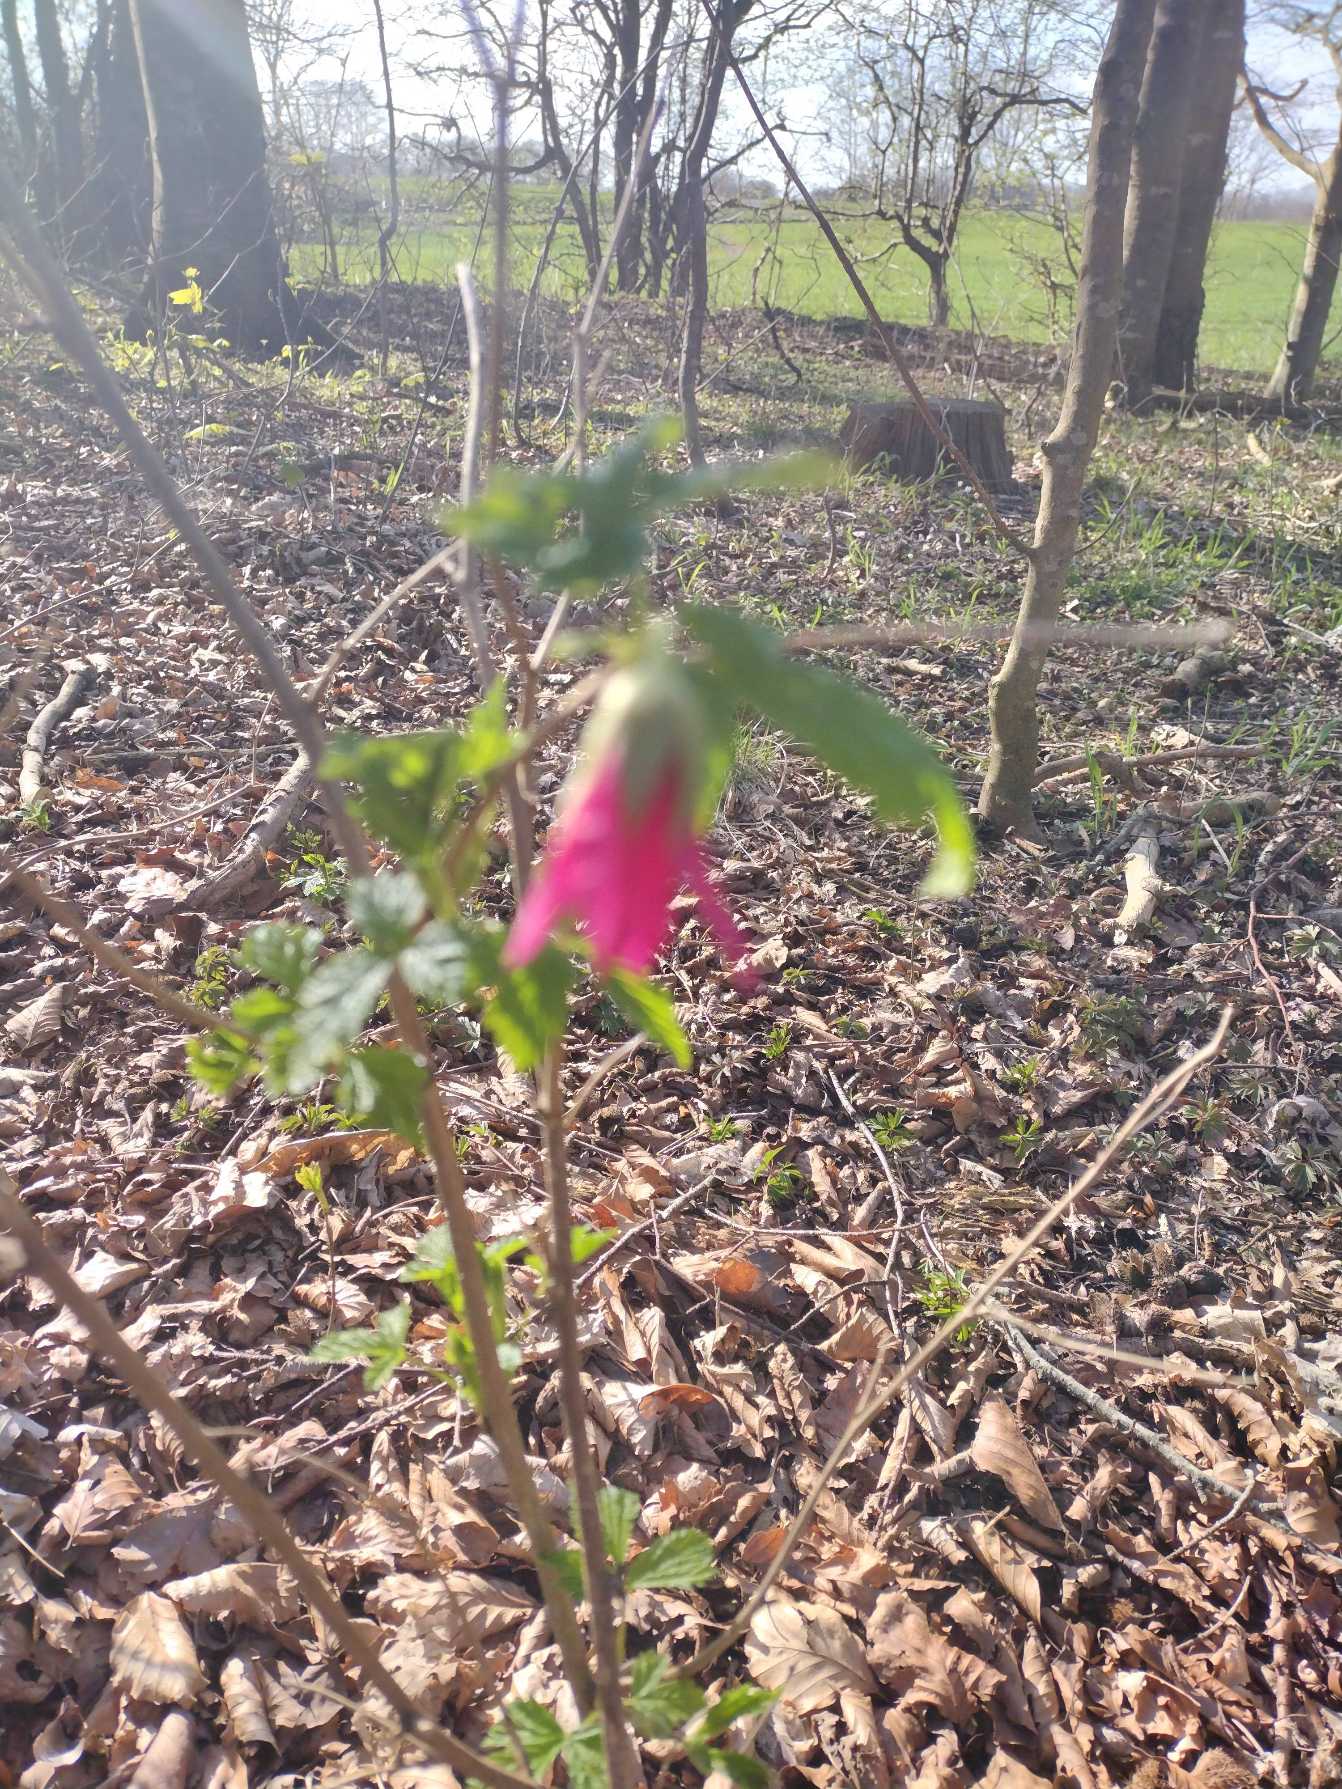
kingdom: Plantae
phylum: Tracheophyta
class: Magnoliopsida
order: Rosales
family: Rosaceae
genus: Rubus
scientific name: Rubus spectabilis
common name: Laksebær
